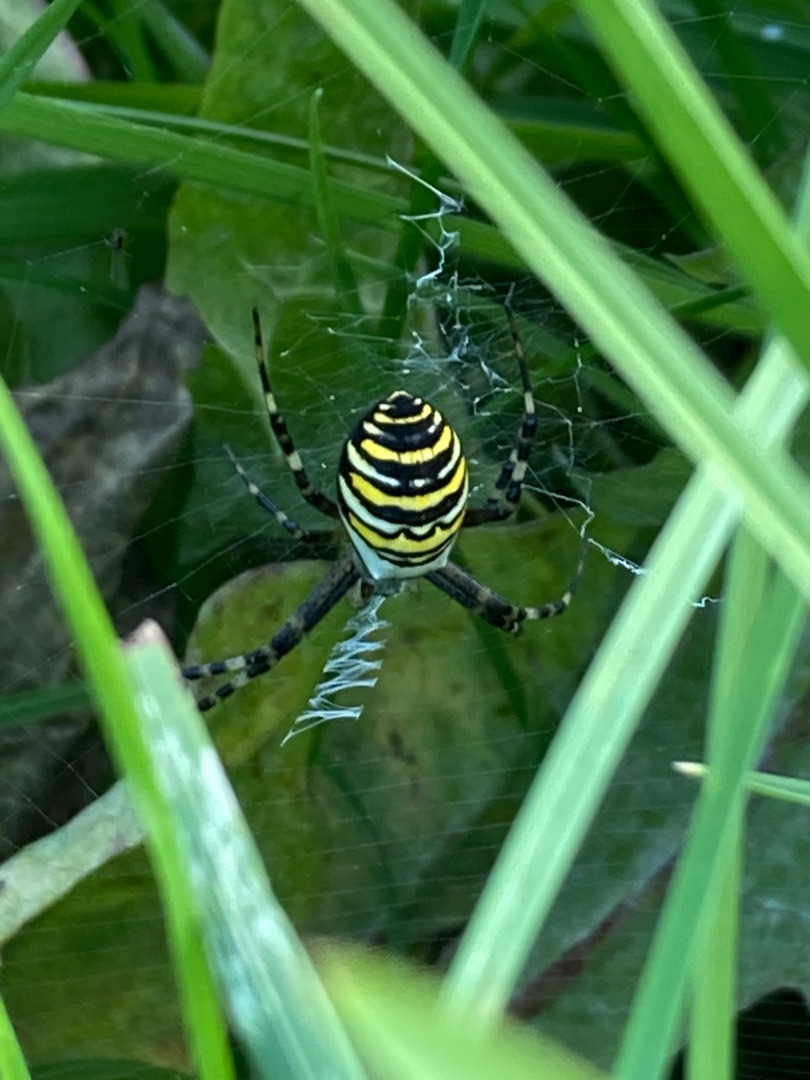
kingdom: Animalia
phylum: Arthropoda
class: Arachnida
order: Araneae
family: Araneidae
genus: Argiope
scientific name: Argiope bruennichi
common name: Hvepseedderkop
